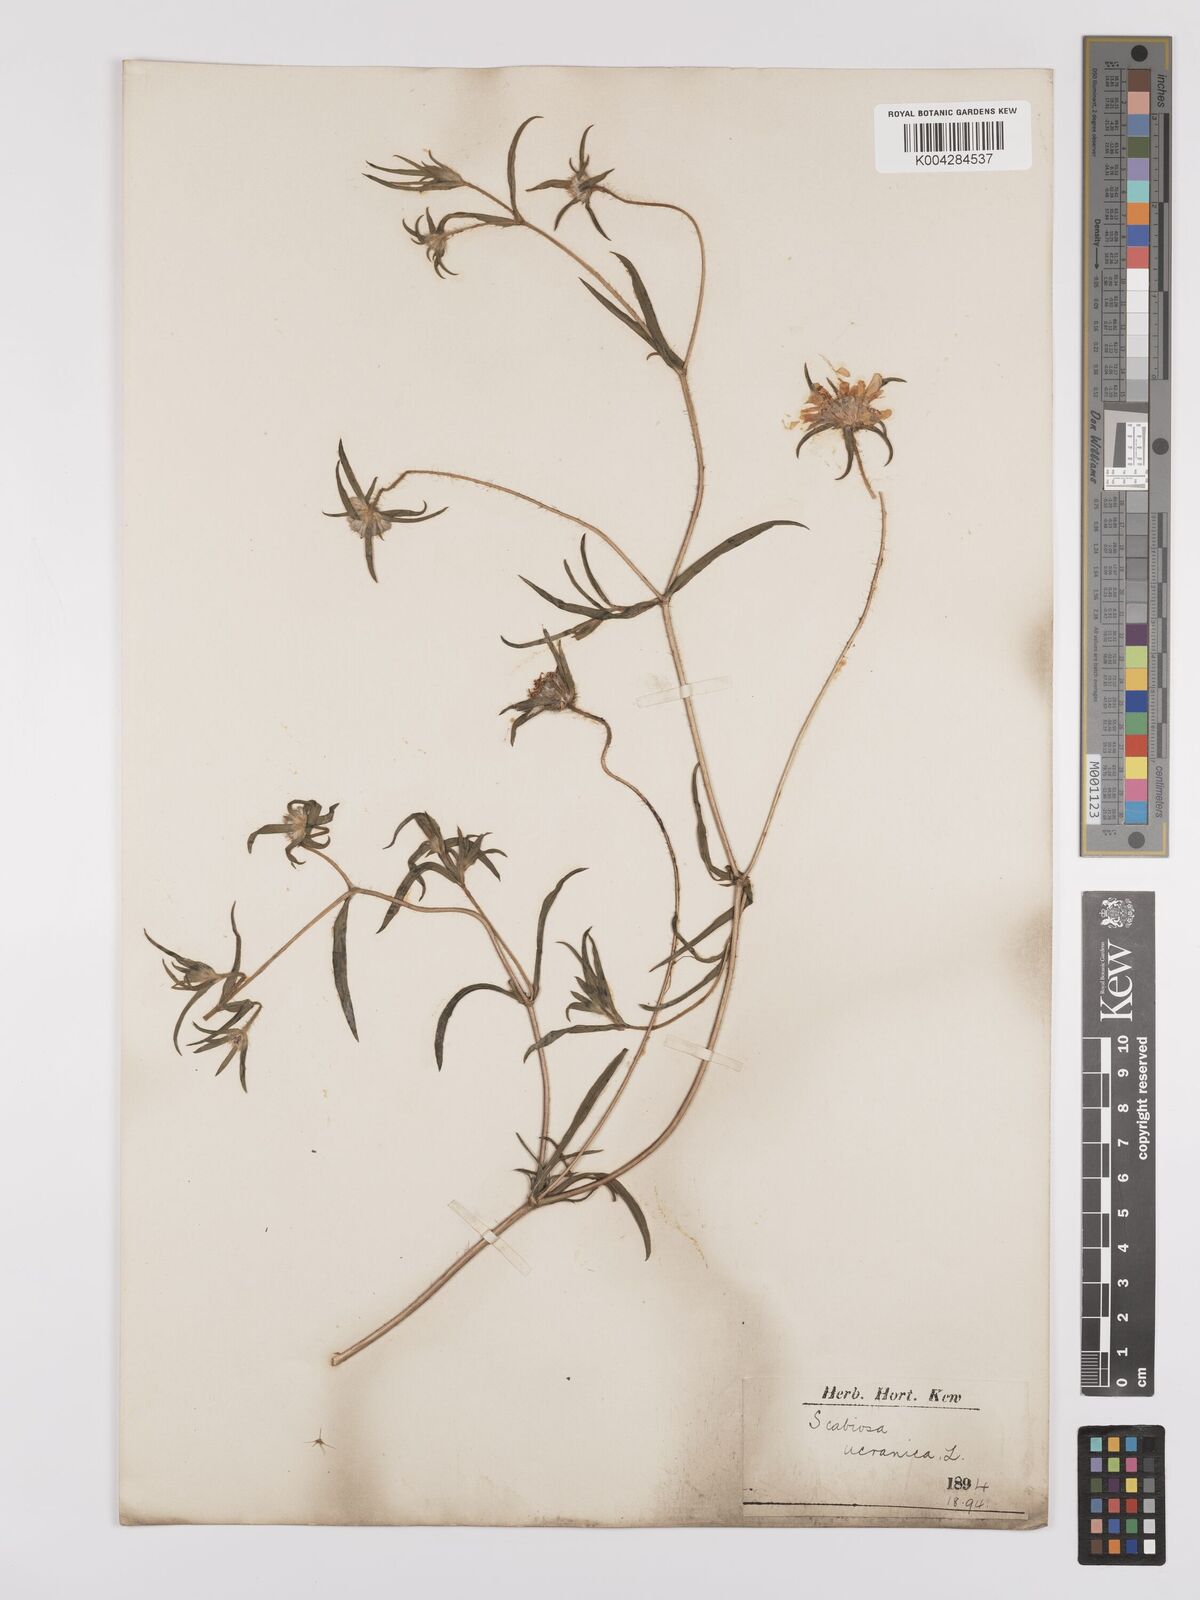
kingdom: Plantae
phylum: Tracheophyta
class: Magnoliopsida
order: Dipsacales
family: Caprifoliaceae
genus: Lomelosia
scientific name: Lomelosia argentea
